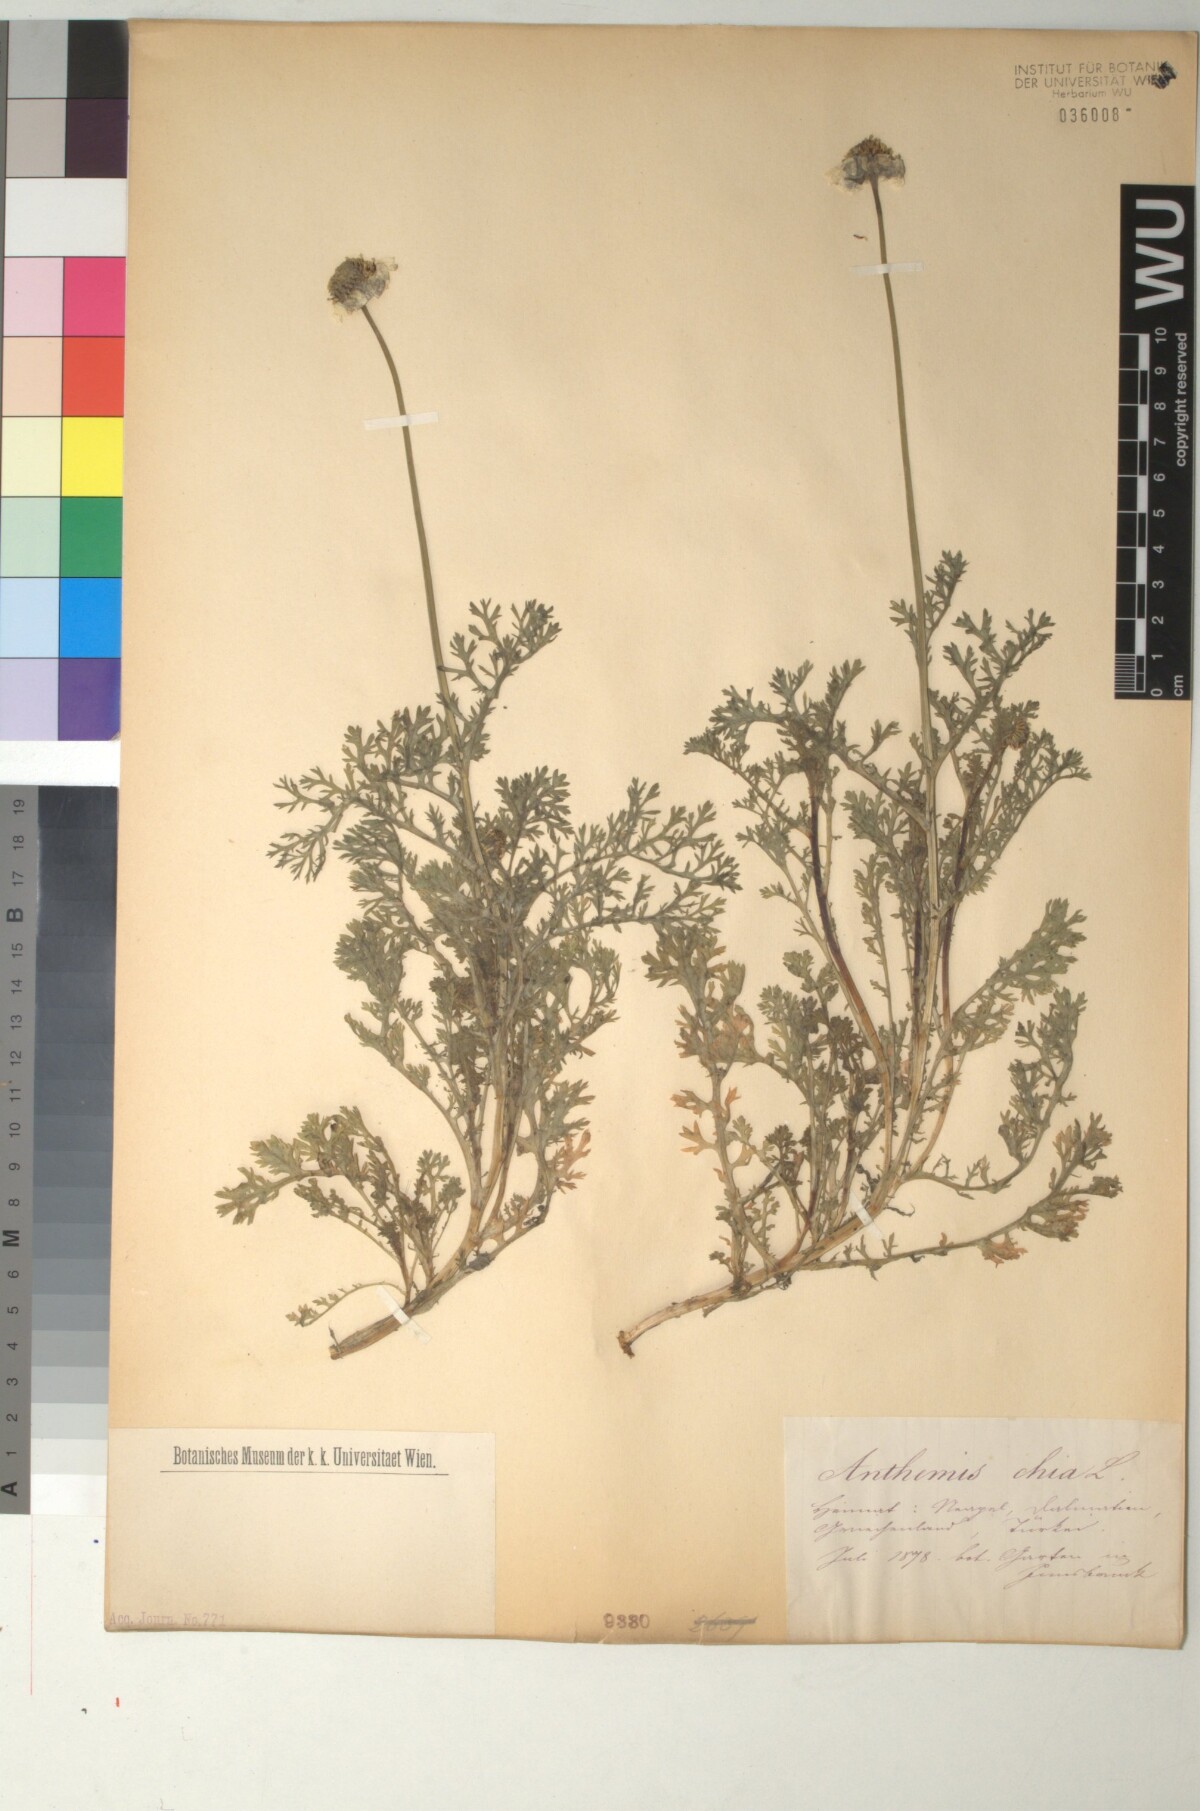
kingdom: Plantae
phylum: Tracheophyta
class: Magnoliopsida
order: Asterales
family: Asteraceae
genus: Anthemis
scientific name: Anthemis chia
